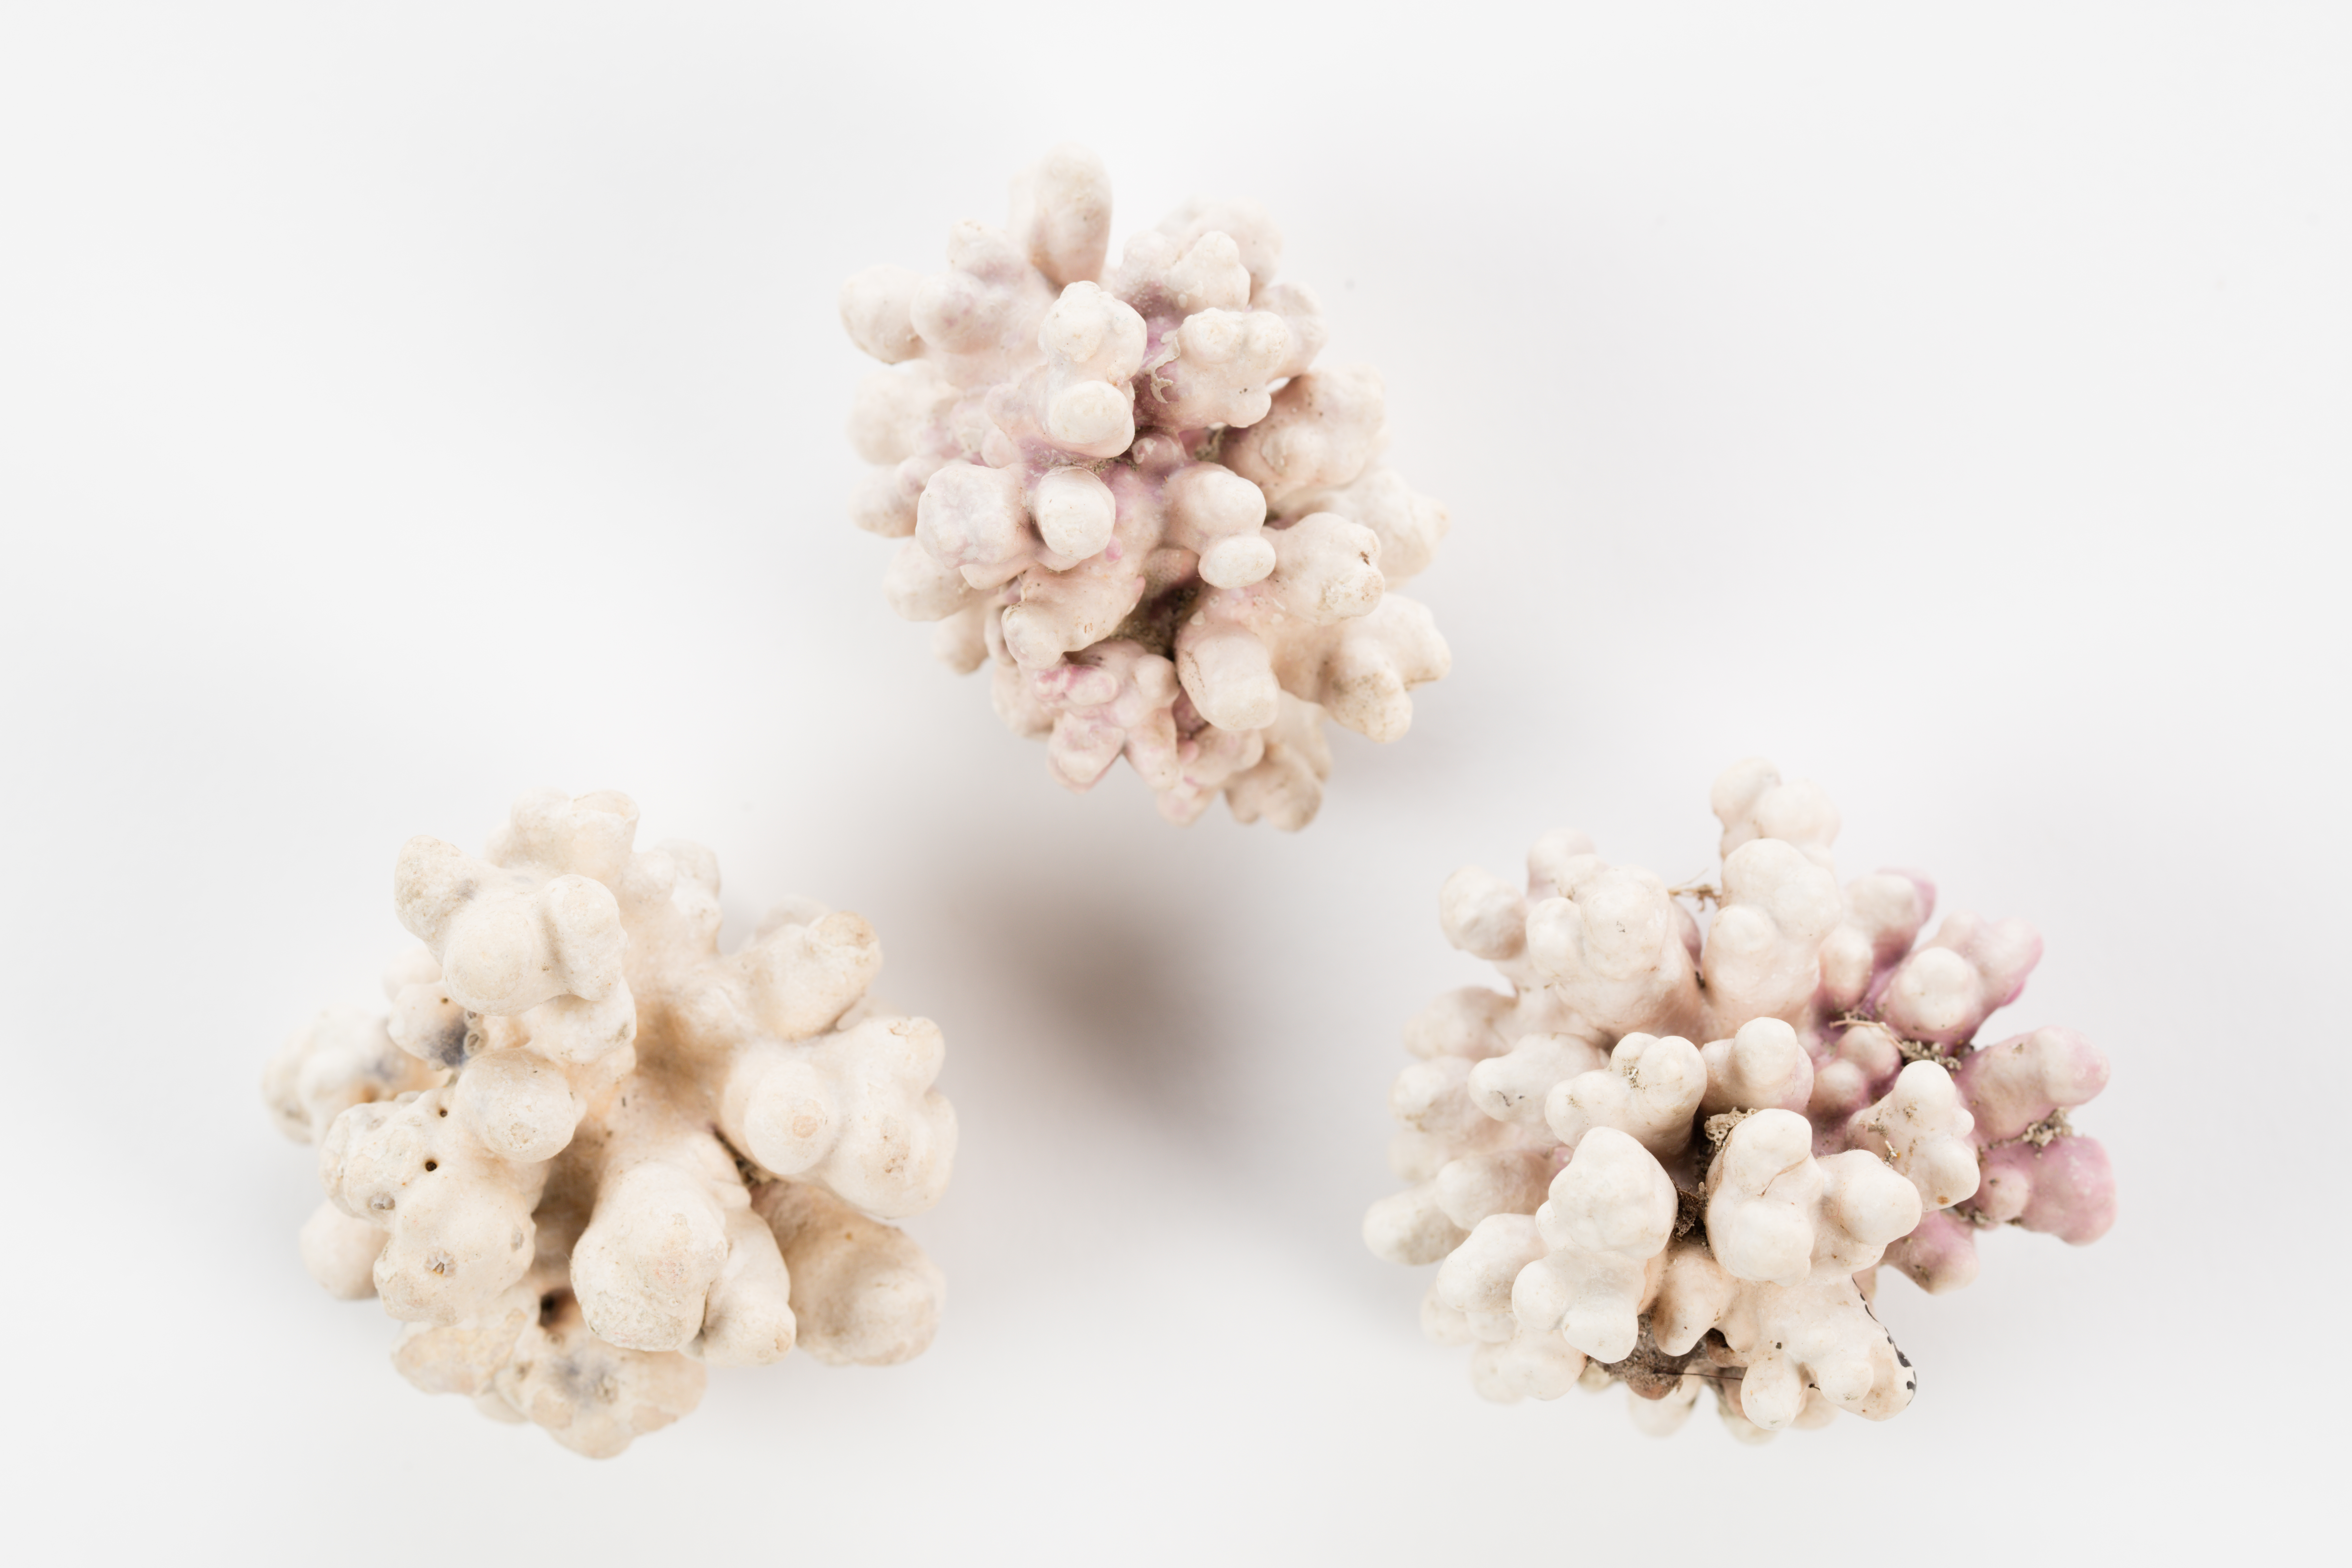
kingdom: Plantae
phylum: Rhodophyta
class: Florideophyceae
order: Corallinales
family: Sporolithaceae
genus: Sporolithon
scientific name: Sporolithon durum
